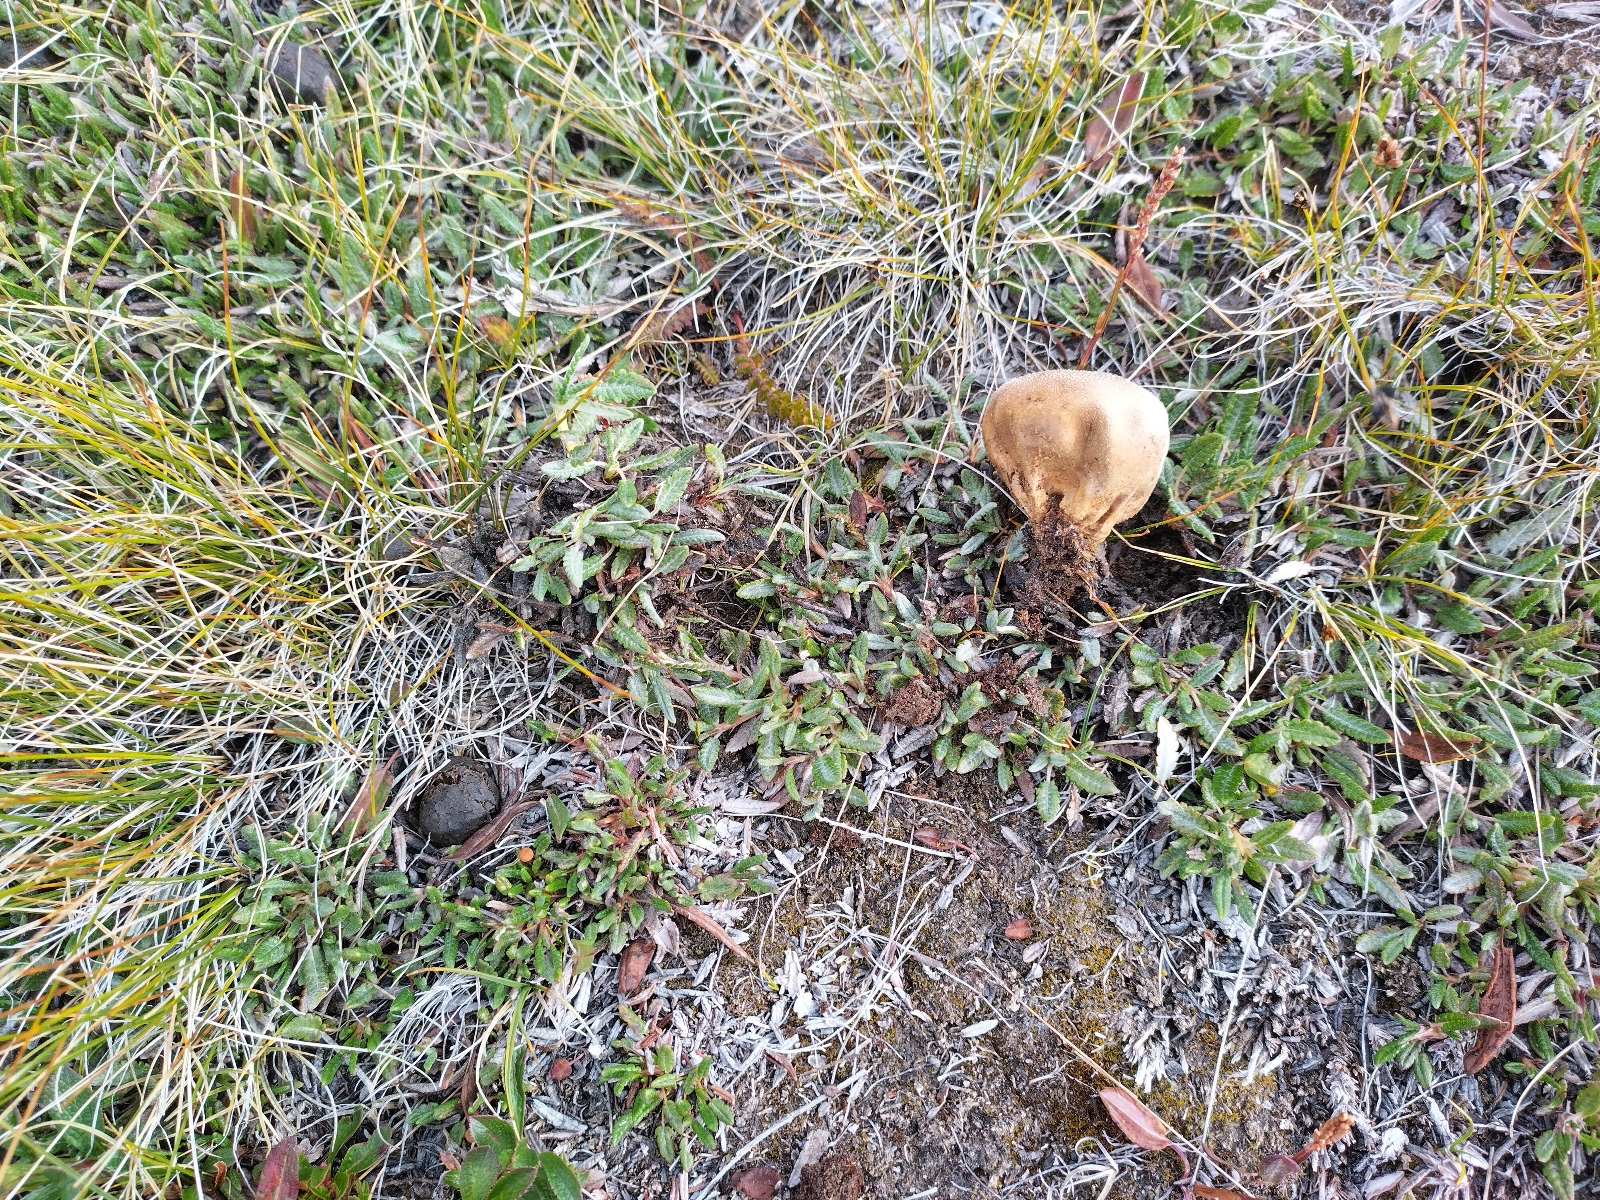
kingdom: Fungi
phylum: Basidiomycota
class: Agaricomycetes
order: Agaricales
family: Lycoperdaceae
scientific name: Lycoperdaceae
